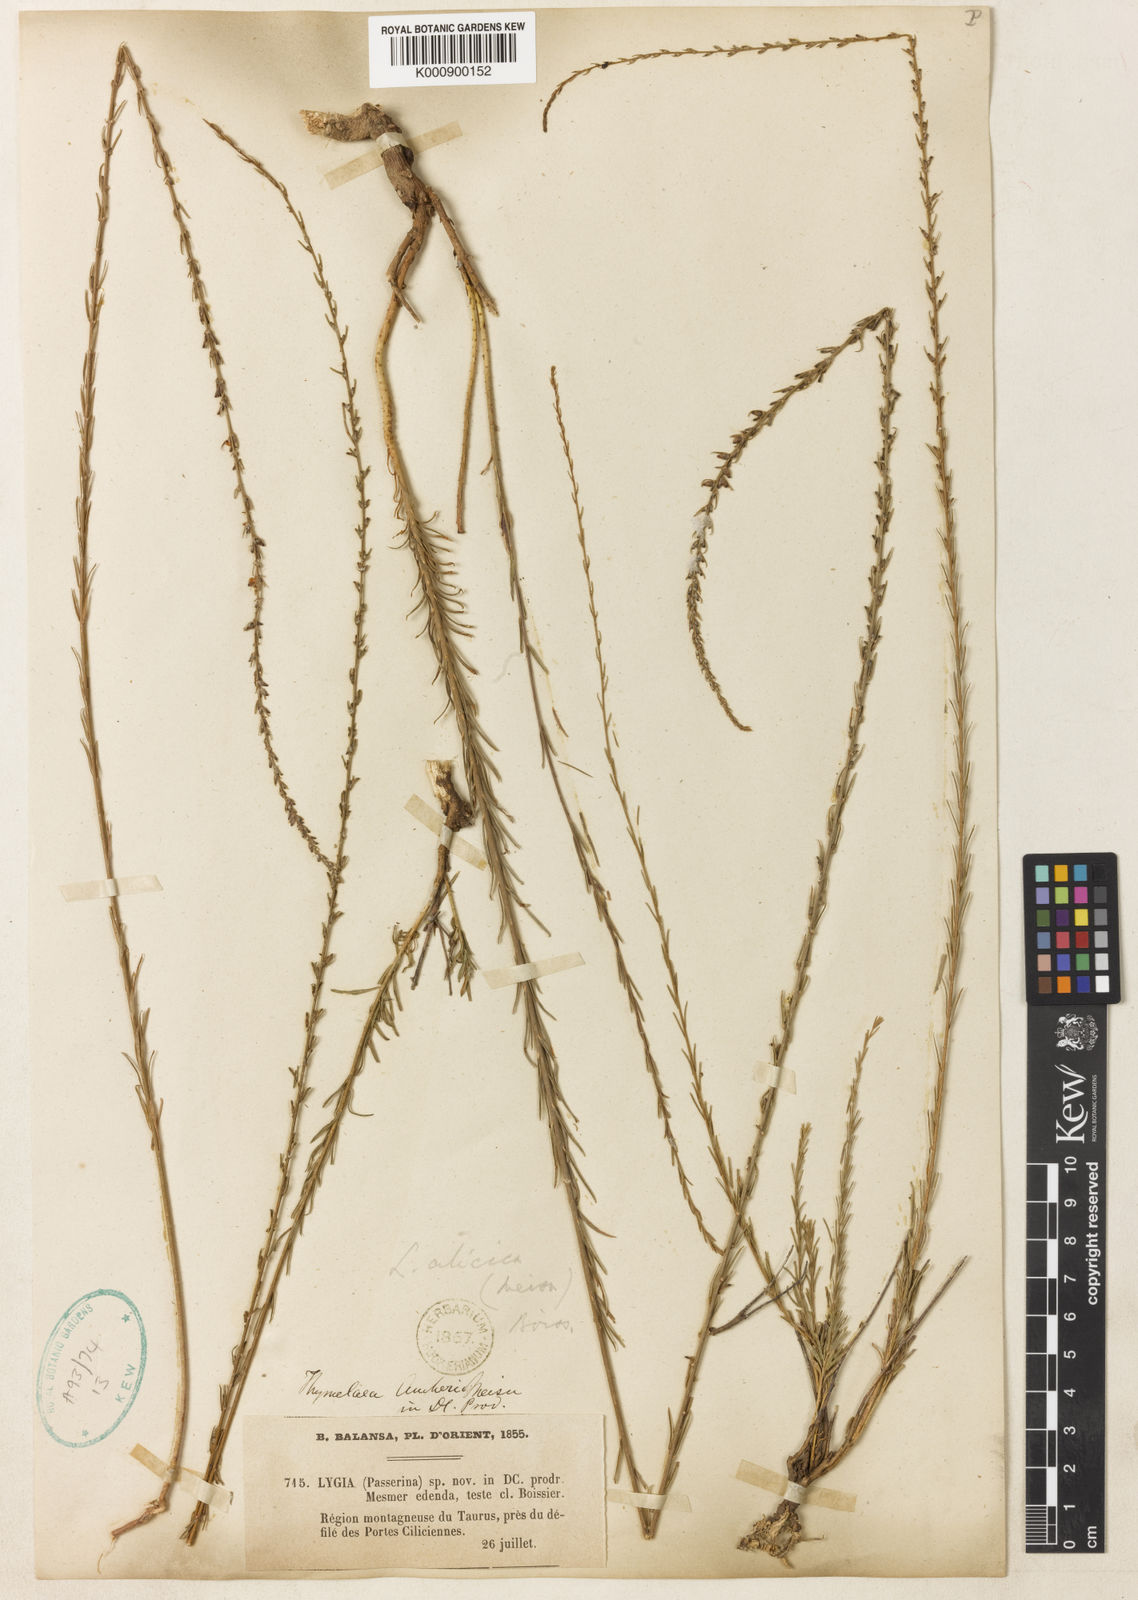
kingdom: Plantae
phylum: Tracheophyta
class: Magnoliopsida
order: Malvales
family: Thymelaeaceae
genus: Wikstroemia
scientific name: Wikstroemia
